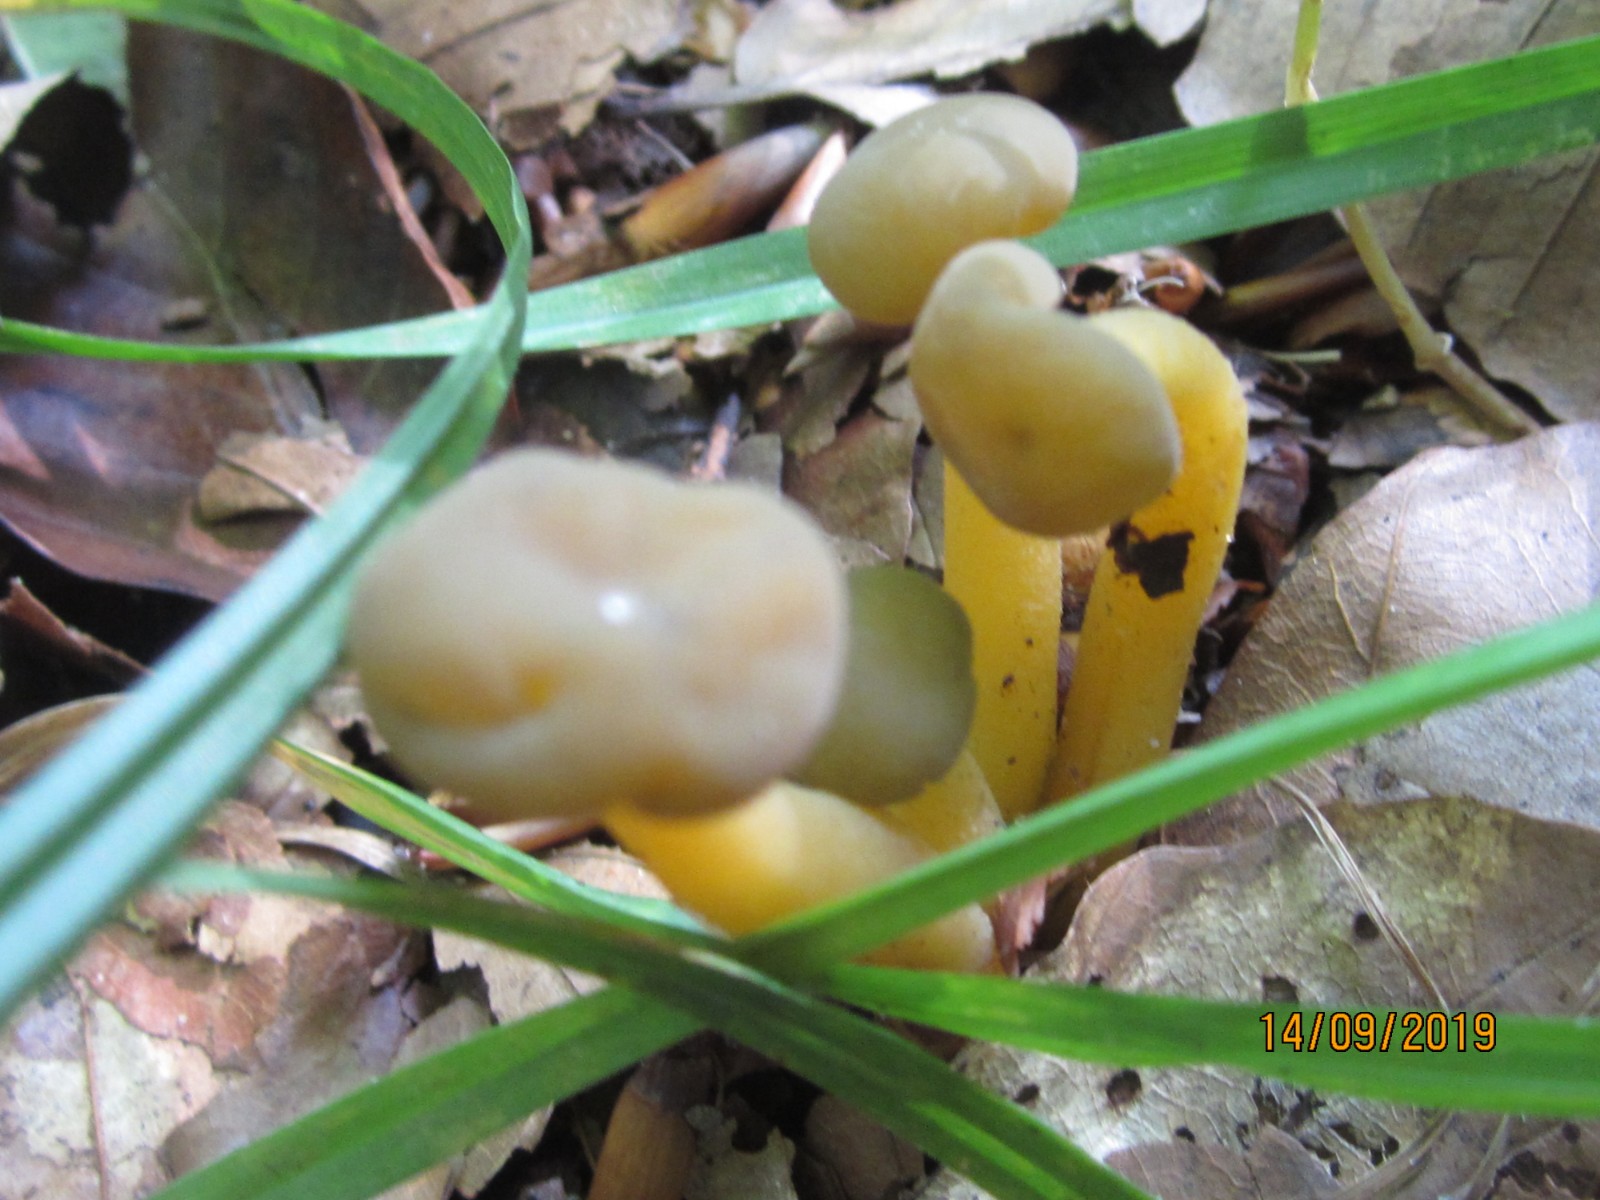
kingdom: Fungi
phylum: Ascomycota
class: Leotiomycetes
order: Leotiales
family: Leotiaceae
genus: Leotia
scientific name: Leotia lubrica
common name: ravsvamp
